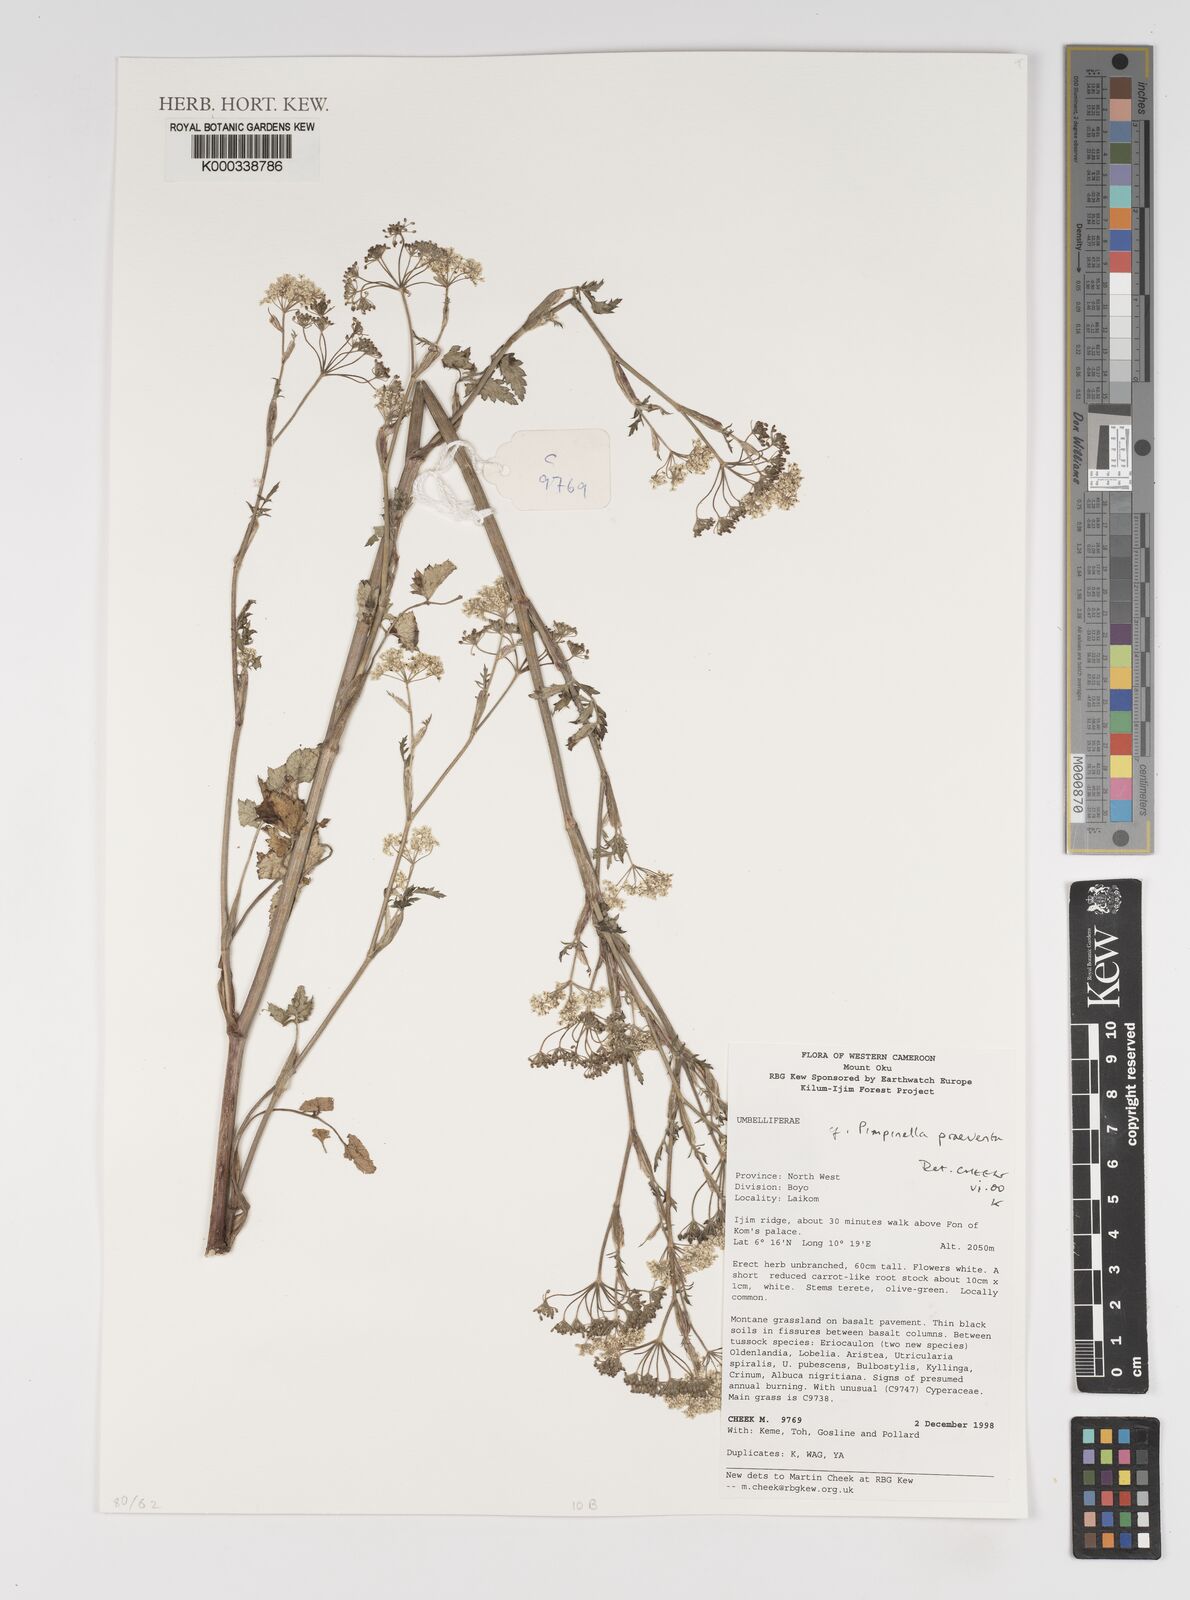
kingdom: Plantae
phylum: Tracheophyta
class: Magnoliopsida
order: Apiales
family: Apiaceae
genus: Pimpinella
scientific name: Pimpinella hirtella
